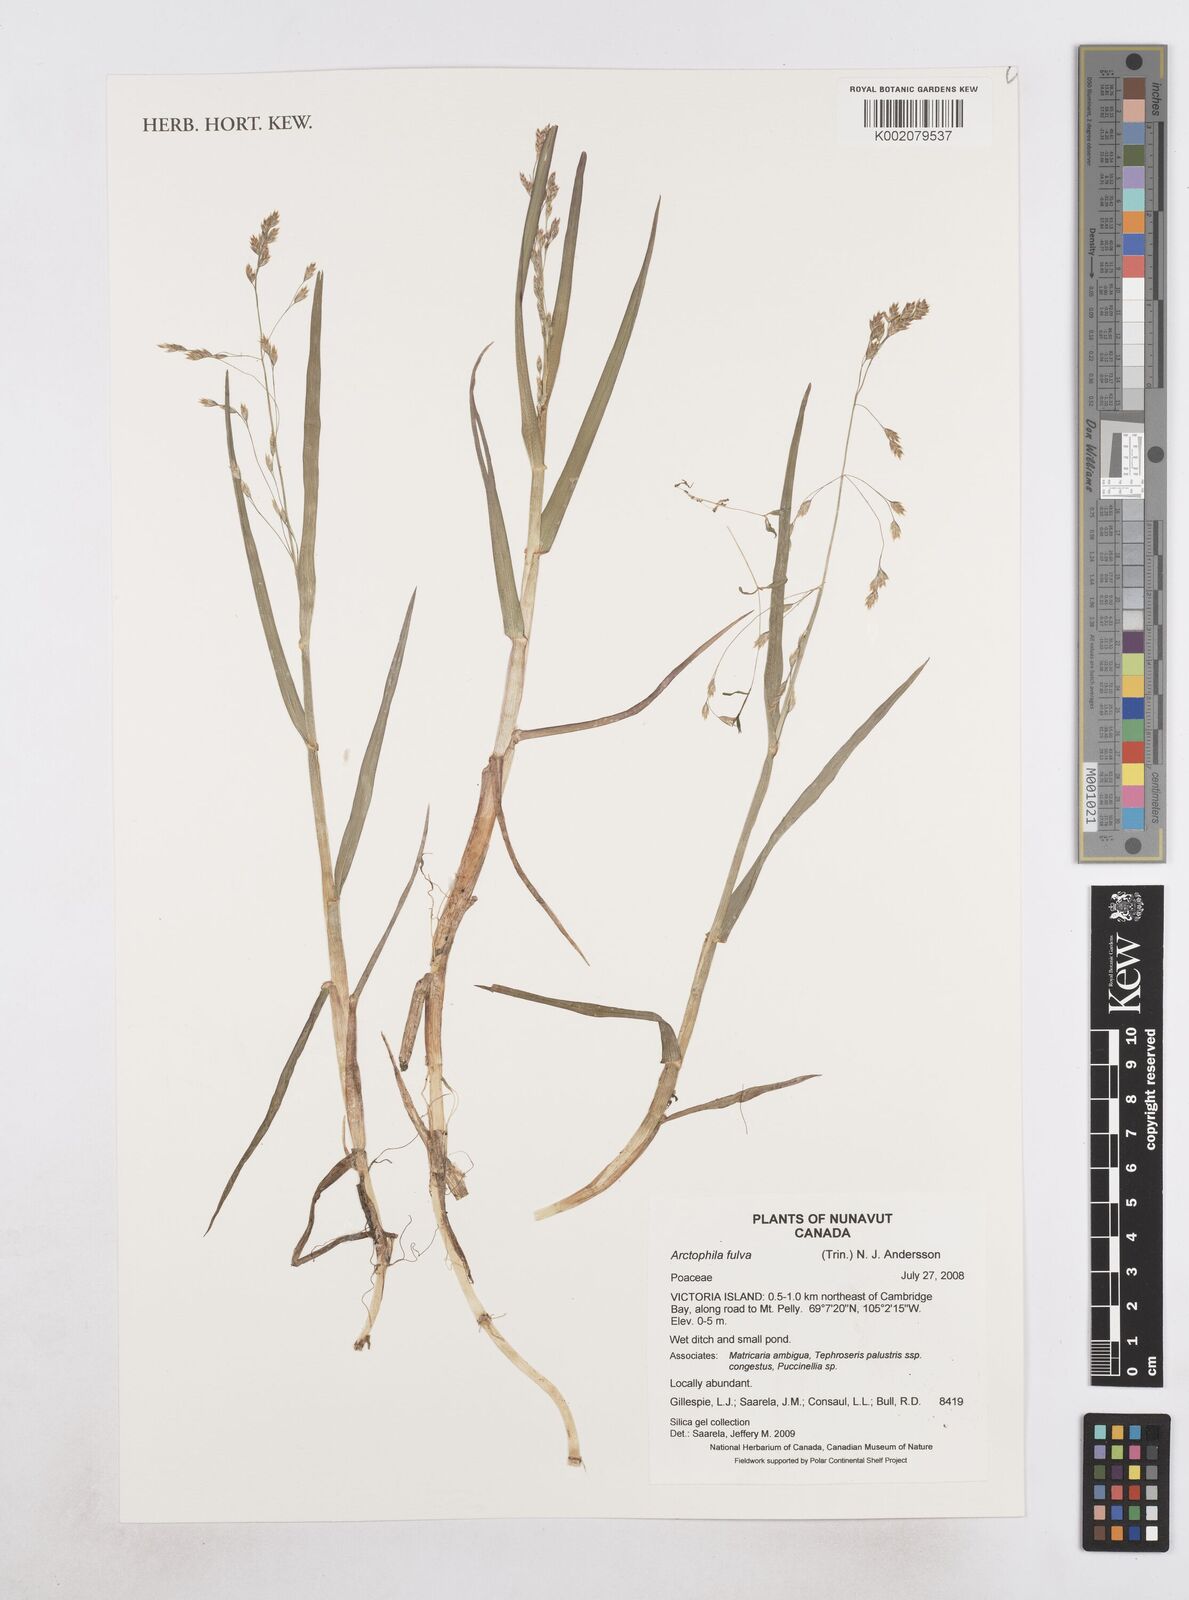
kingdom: Plantae
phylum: Tracheophyta
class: Liliopsida
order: Poales
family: Poaceae
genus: Dupontia
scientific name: Dupontia fulva
